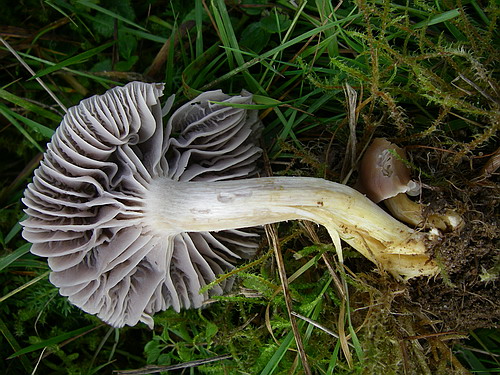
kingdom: Fungi
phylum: Basidiomycota
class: Agaricomycetes
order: Agaricales
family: Hygrophoraceae
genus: Cuphophyllus
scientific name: Cuphophyllus flavipes
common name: gulfodet vokshat
